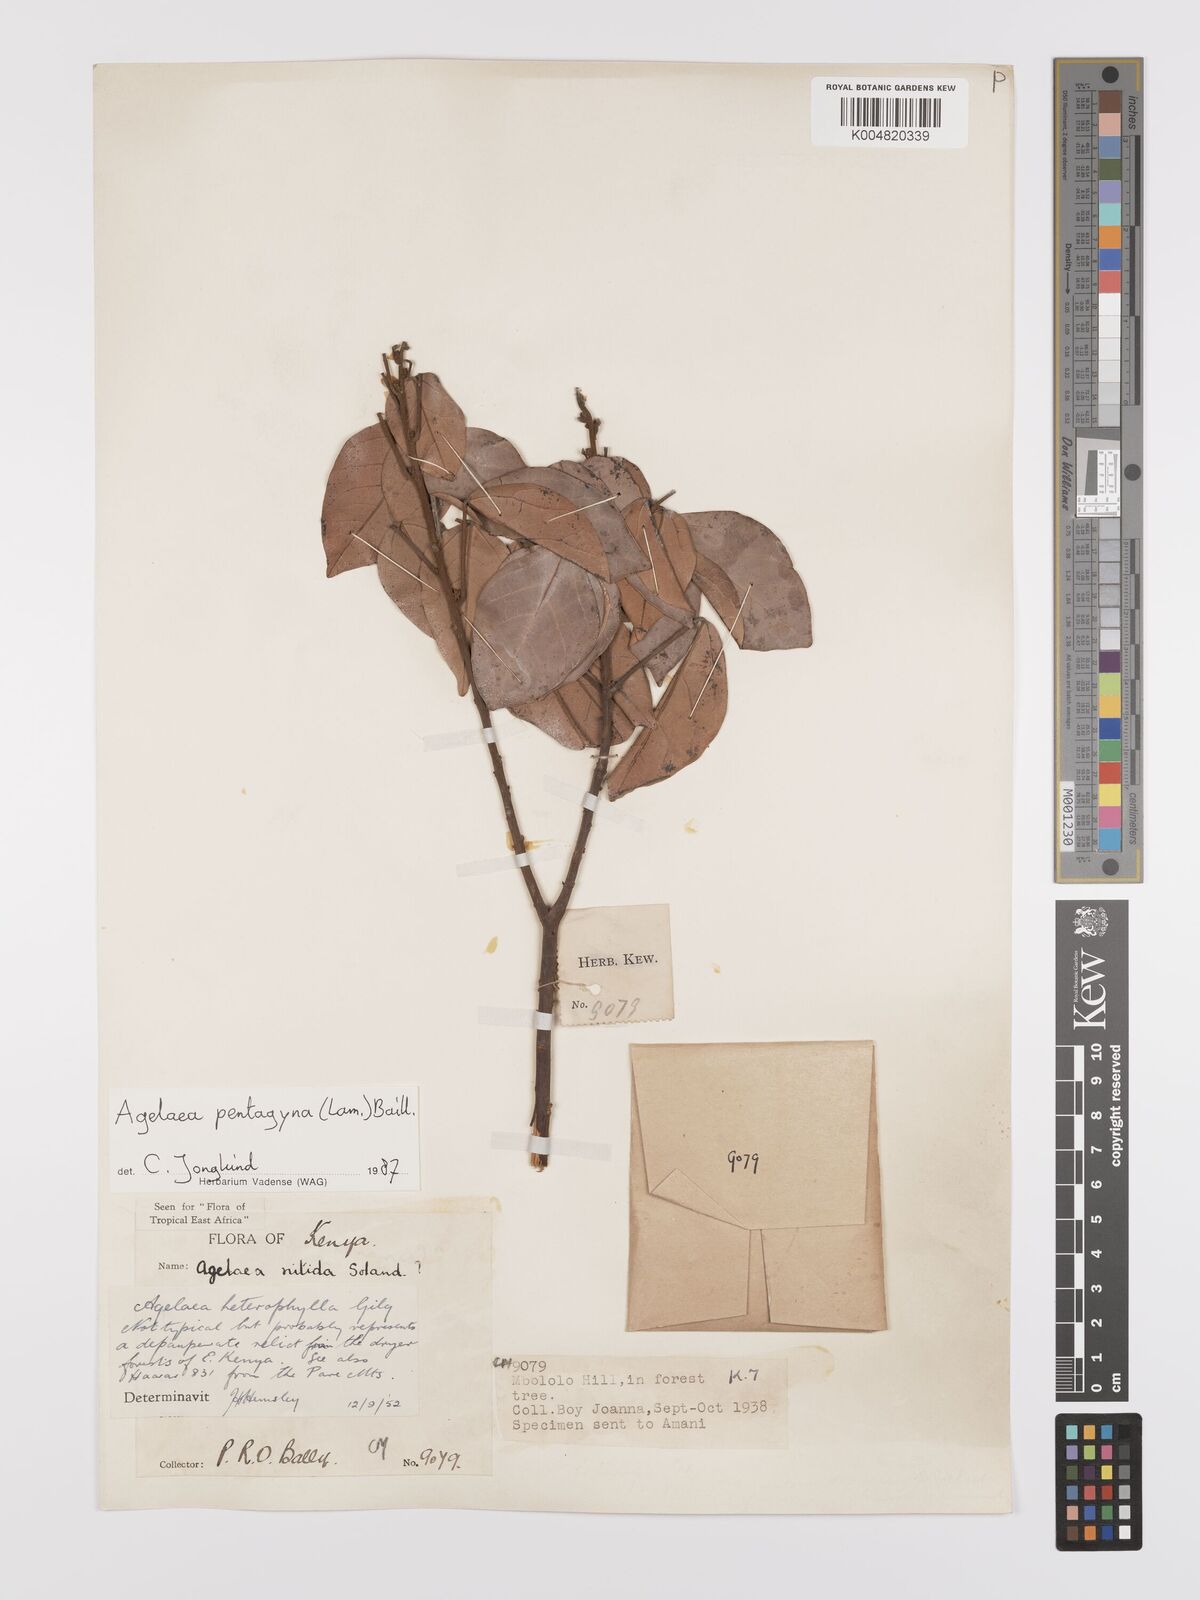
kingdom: Plantae
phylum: Tracheophyta
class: Magnoliopsida
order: Oxalidales
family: Connaraceae
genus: Agelaea
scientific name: Agelaea pentagyna
